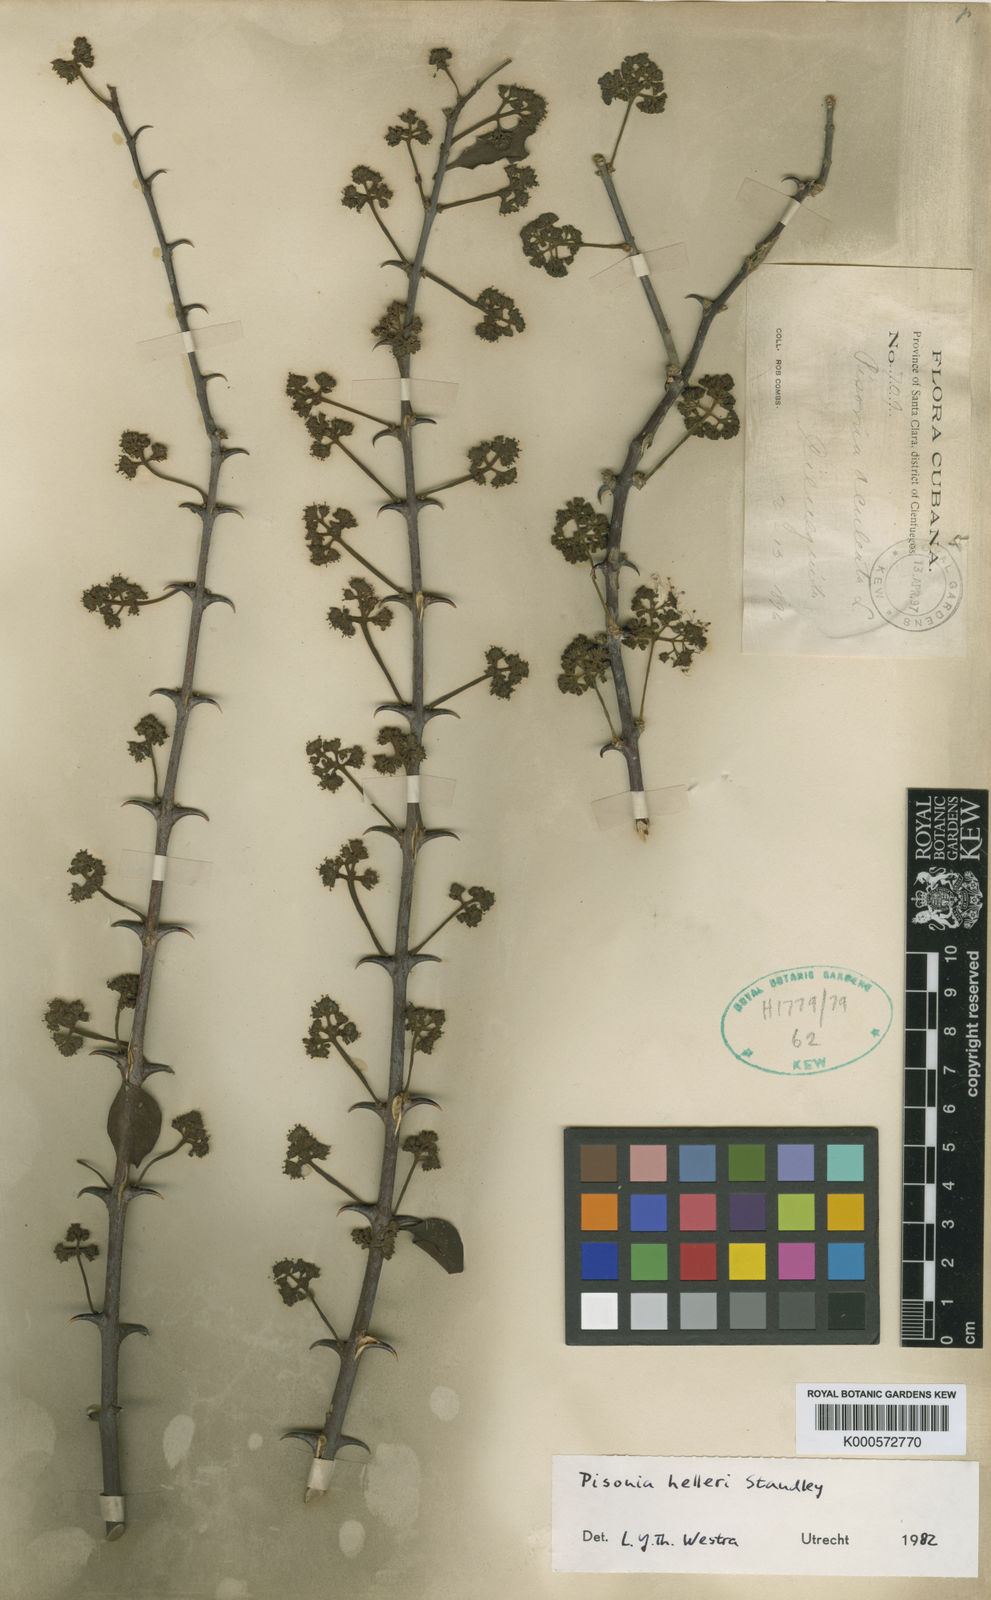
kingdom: Plantae
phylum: Tracheophyta
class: Magnoliopsida
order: Caryophyllales
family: Nyctaginaceae
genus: Pisonia
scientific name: Pisonia aculeata
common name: Cockspur vine
